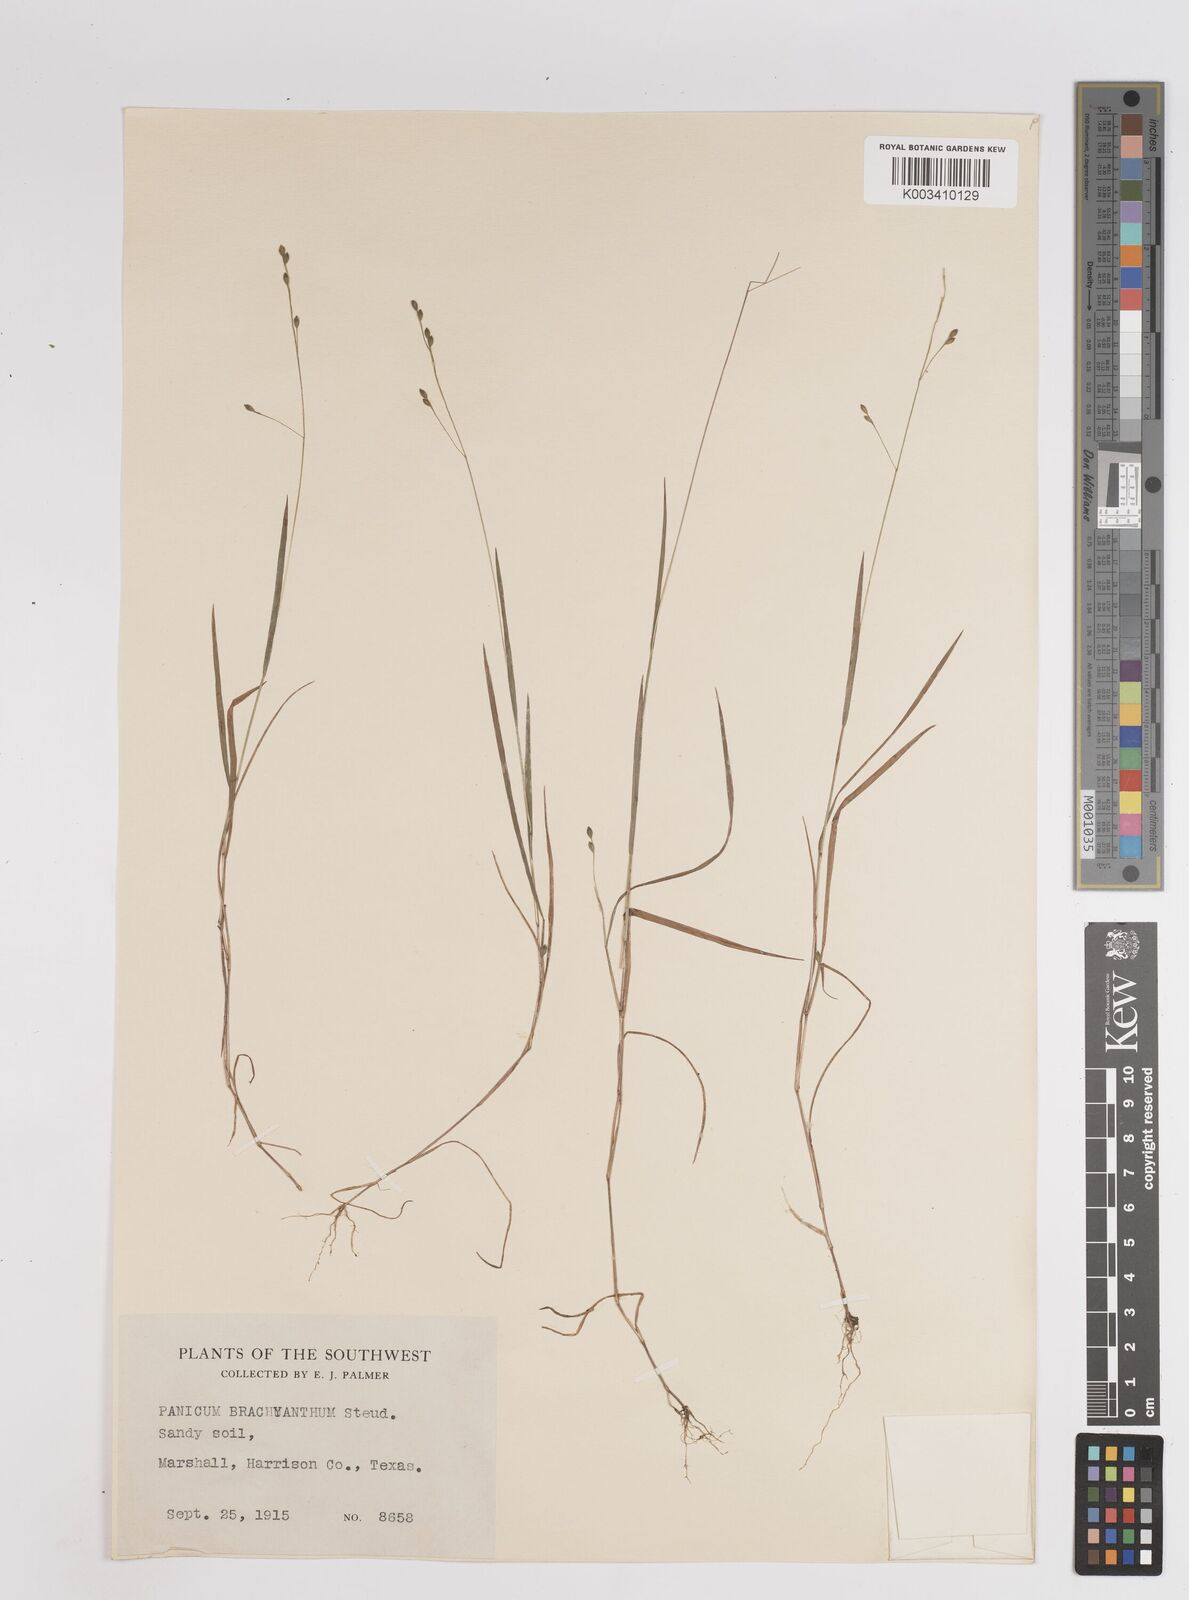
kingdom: Plantae
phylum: Tracheophyta
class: Liliopsida
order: Poales
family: Poaceae
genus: Kellochloa
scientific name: Kellochloa brachyantha
